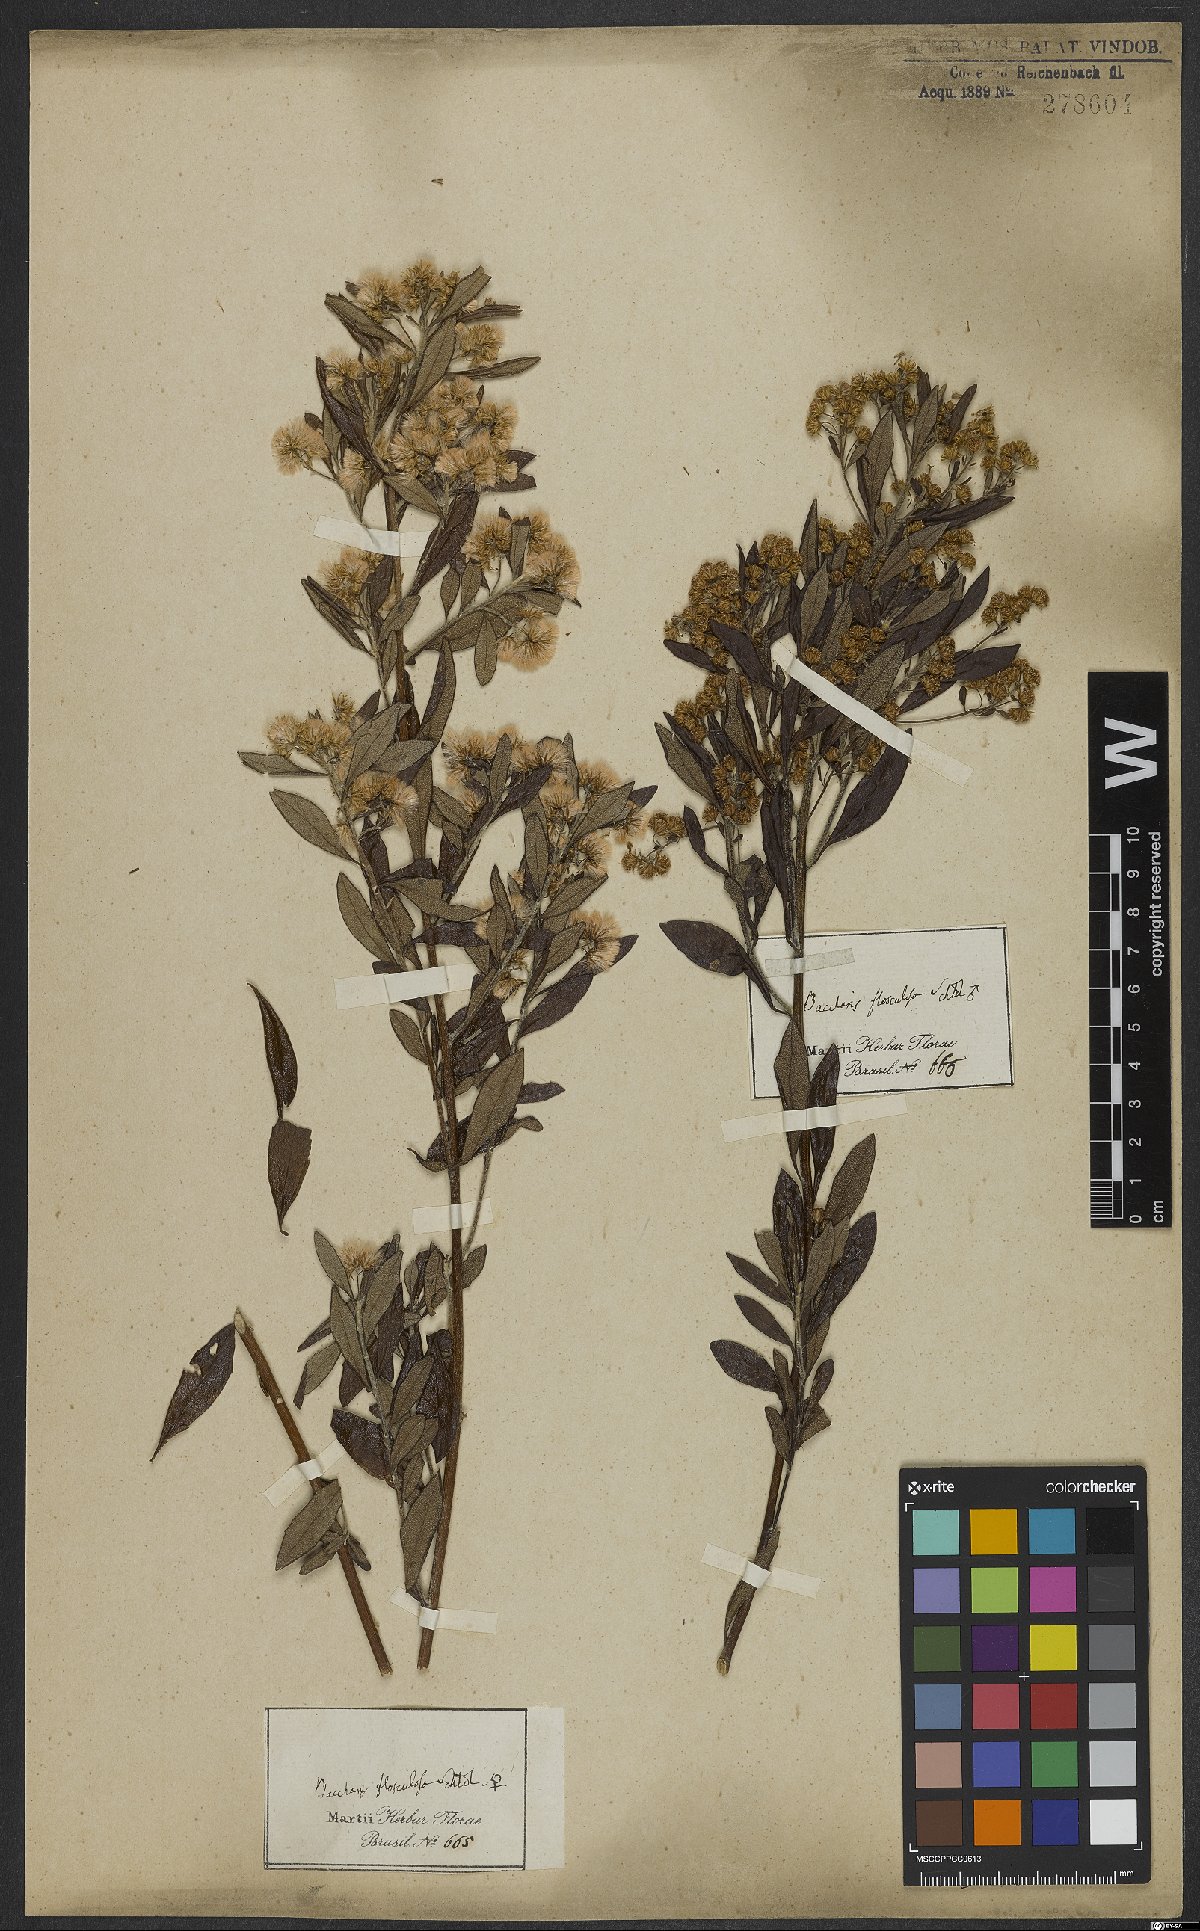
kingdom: Plantae
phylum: Tracheophyta
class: Magnoliopsida
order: Asterales
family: Asteraceae
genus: Baccharis
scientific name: Baccharis calvescens
